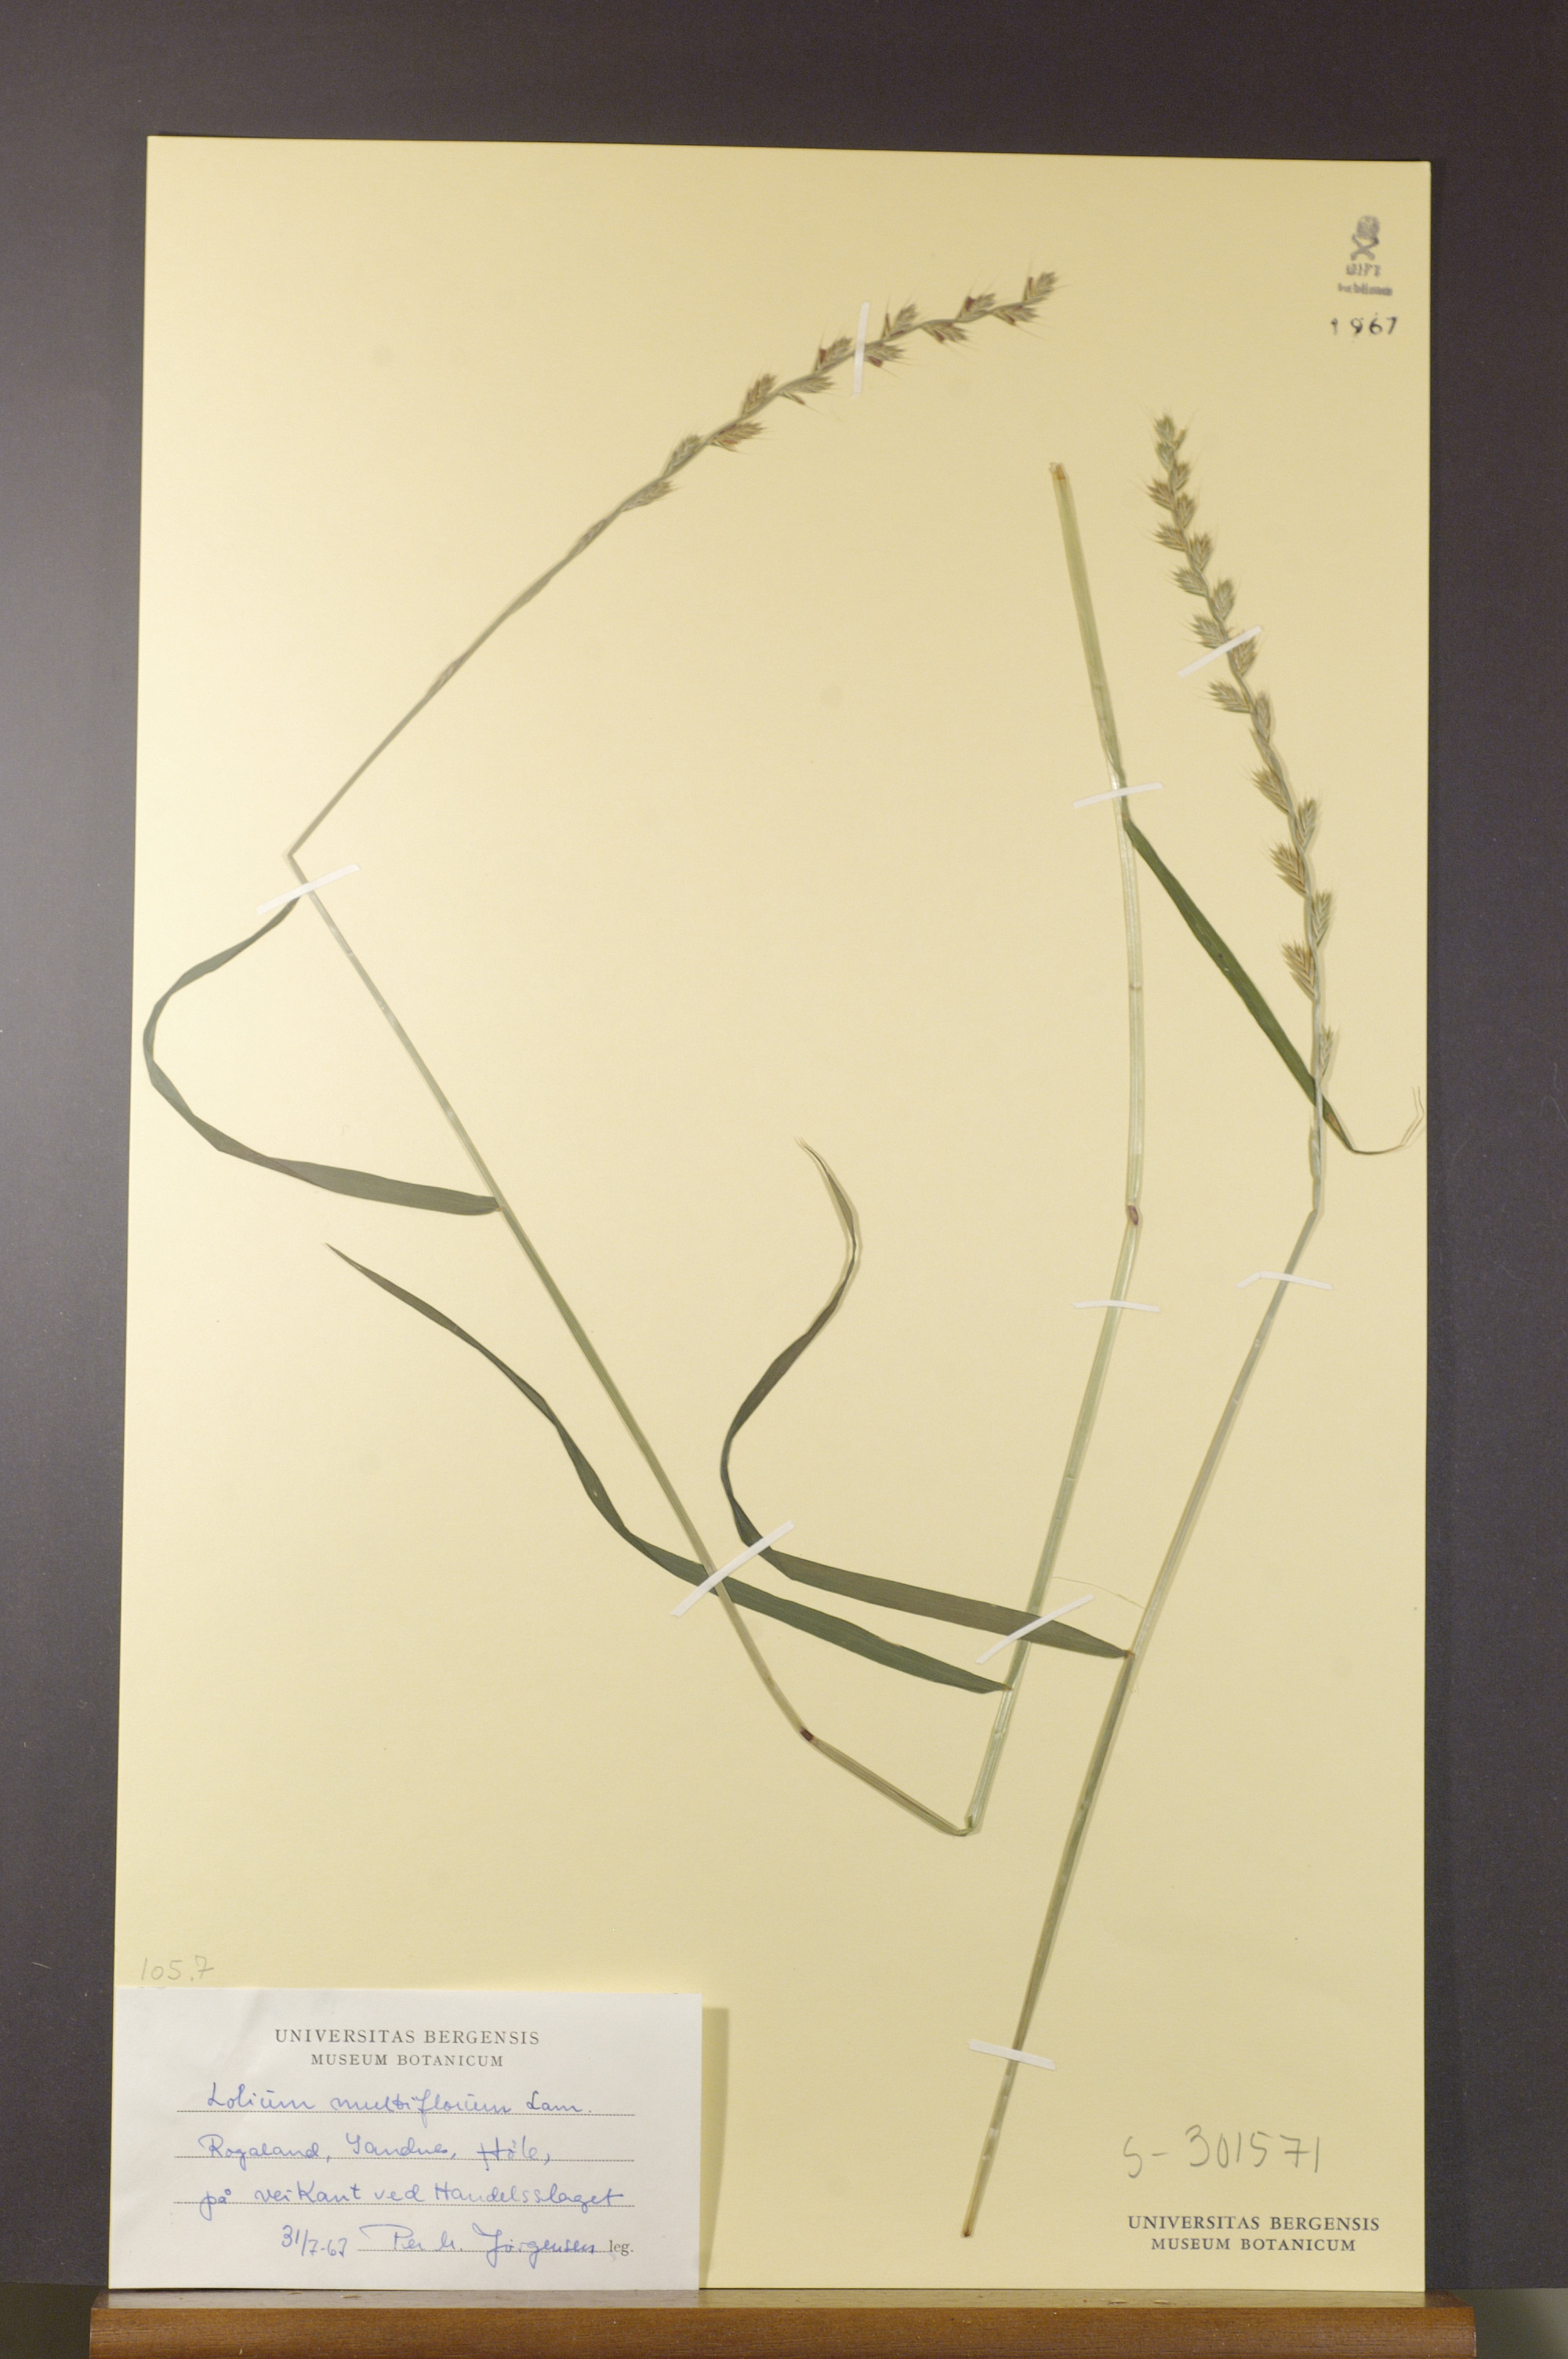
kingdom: Plantae
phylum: Tracheophyta
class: Liliopsida
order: Poales
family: Poaceae
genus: Lolium
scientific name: Lolium multiflorum
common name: Annual ryegrass
